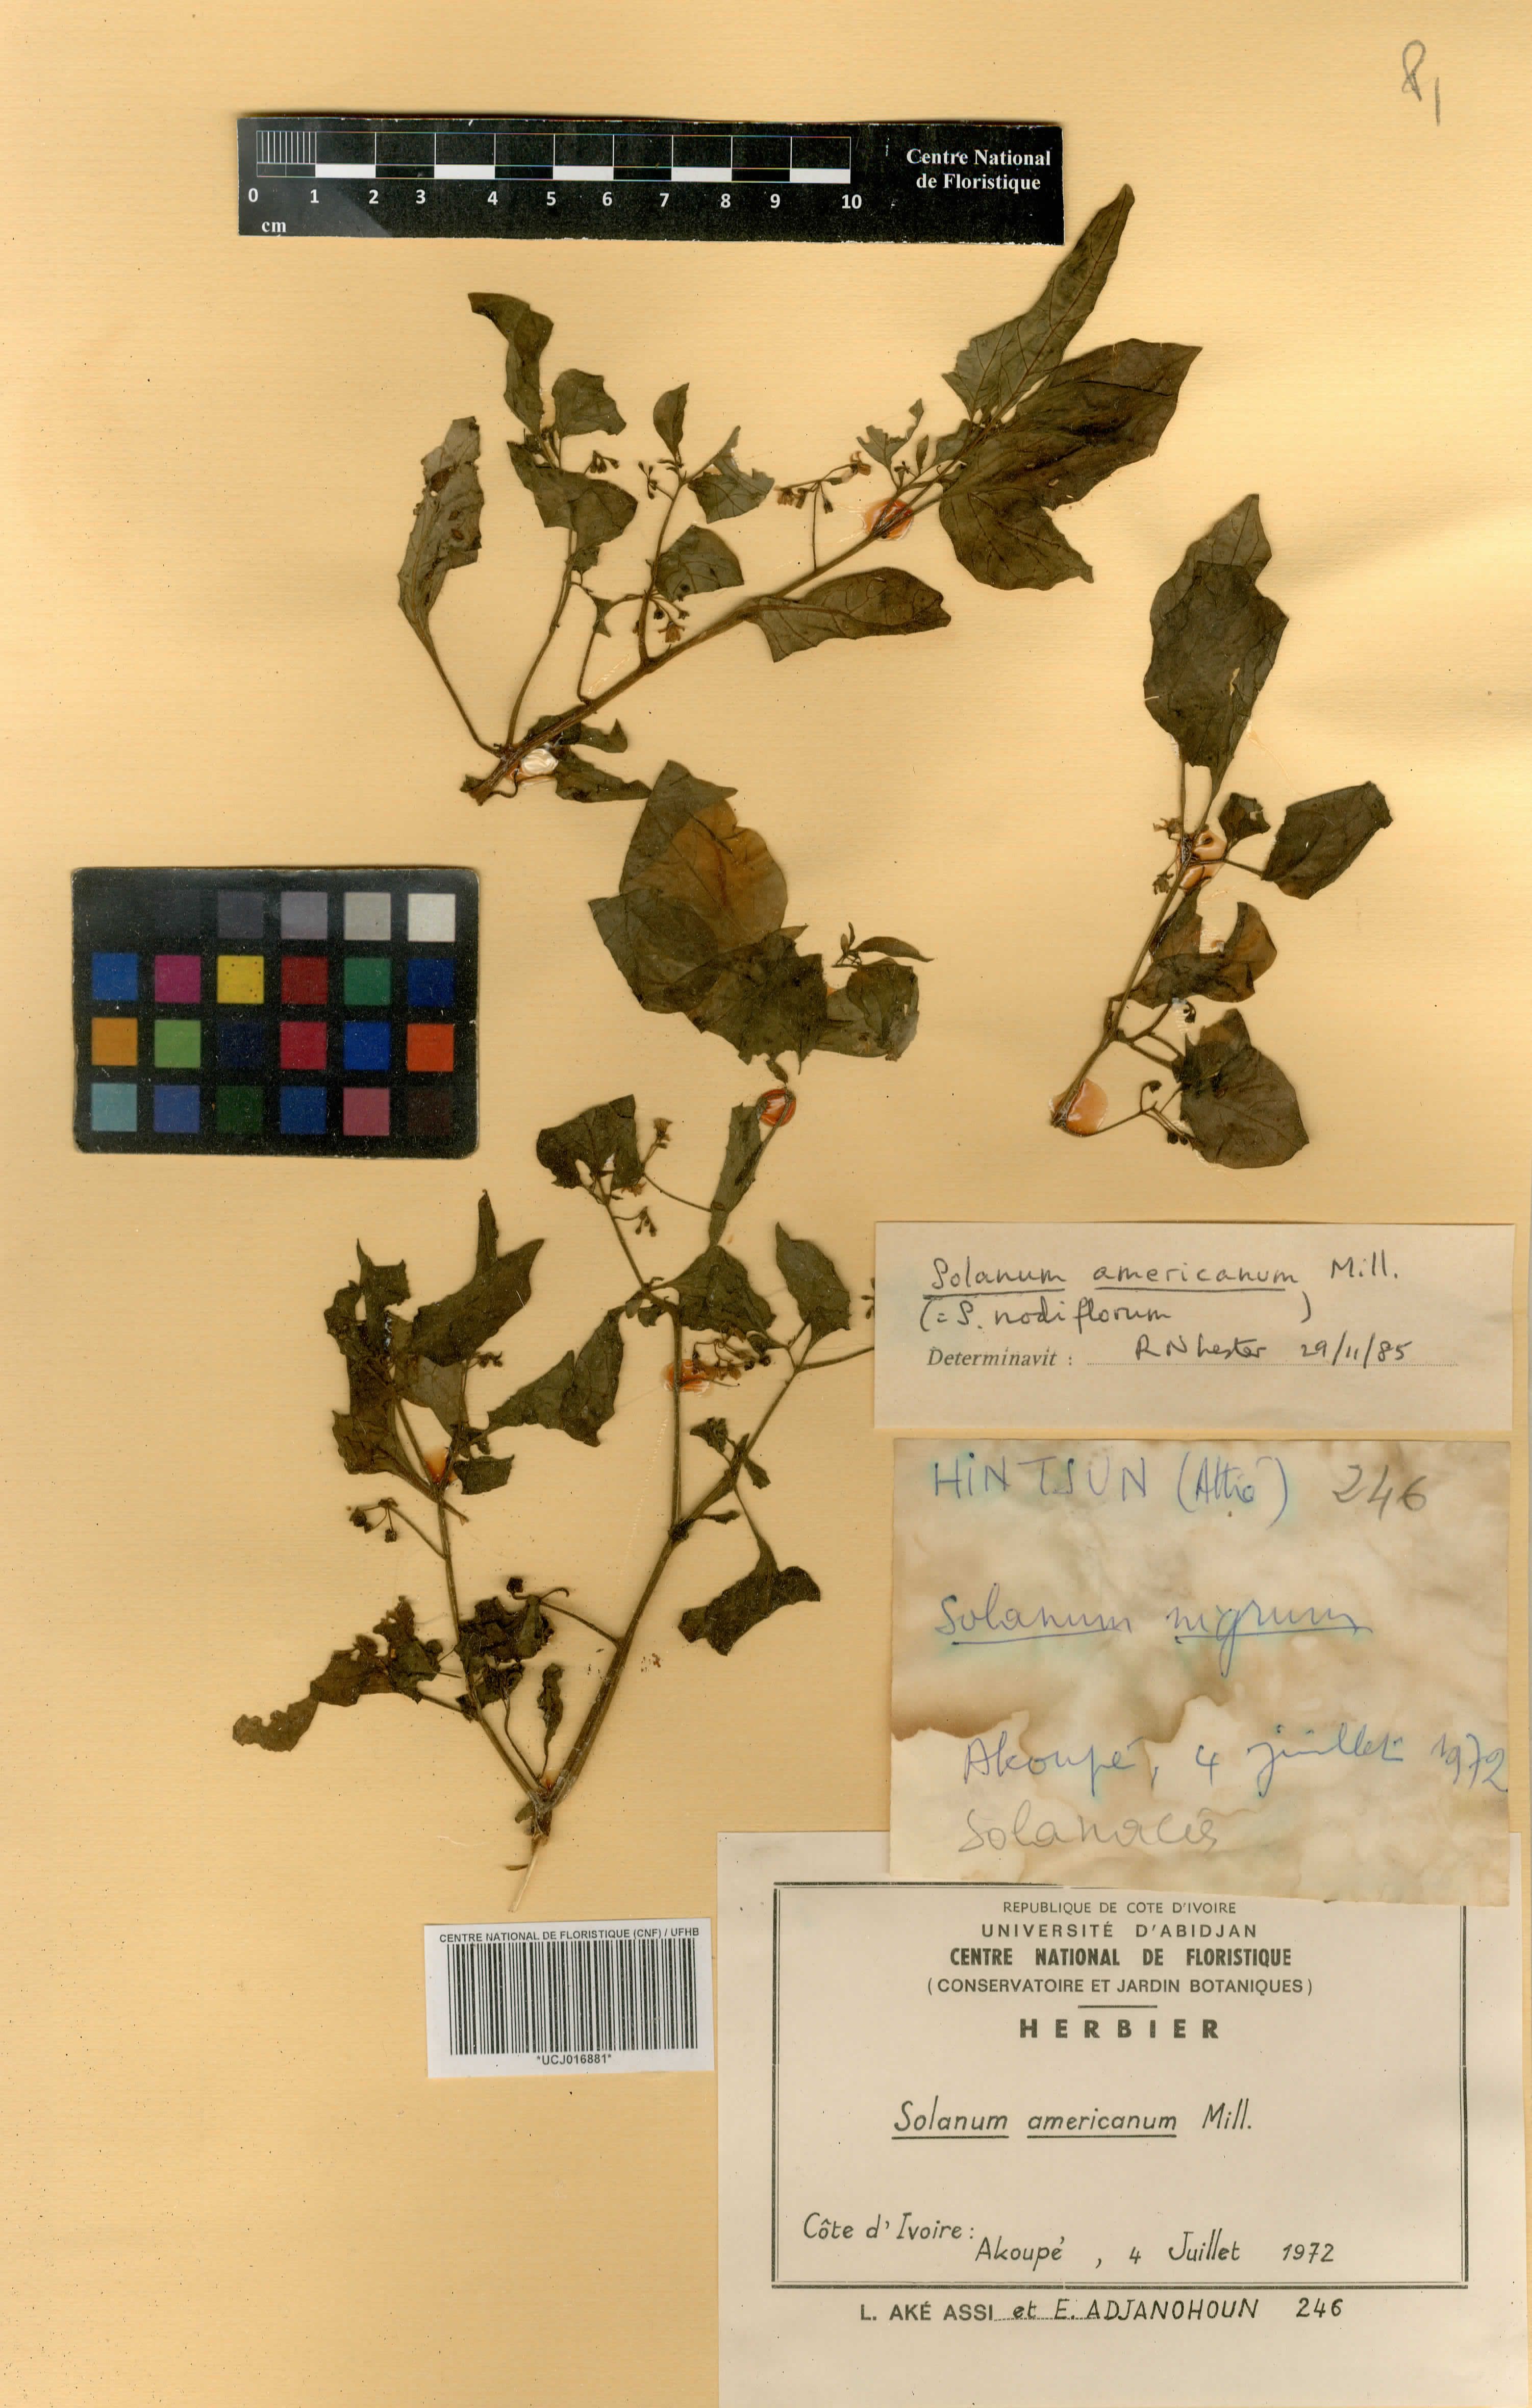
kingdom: Plantae
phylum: Tracheophyta
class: Magnoliopsida
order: Solanales
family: Solanaceae
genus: Solanum
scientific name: Solanum aethiopicum
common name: Gilo
